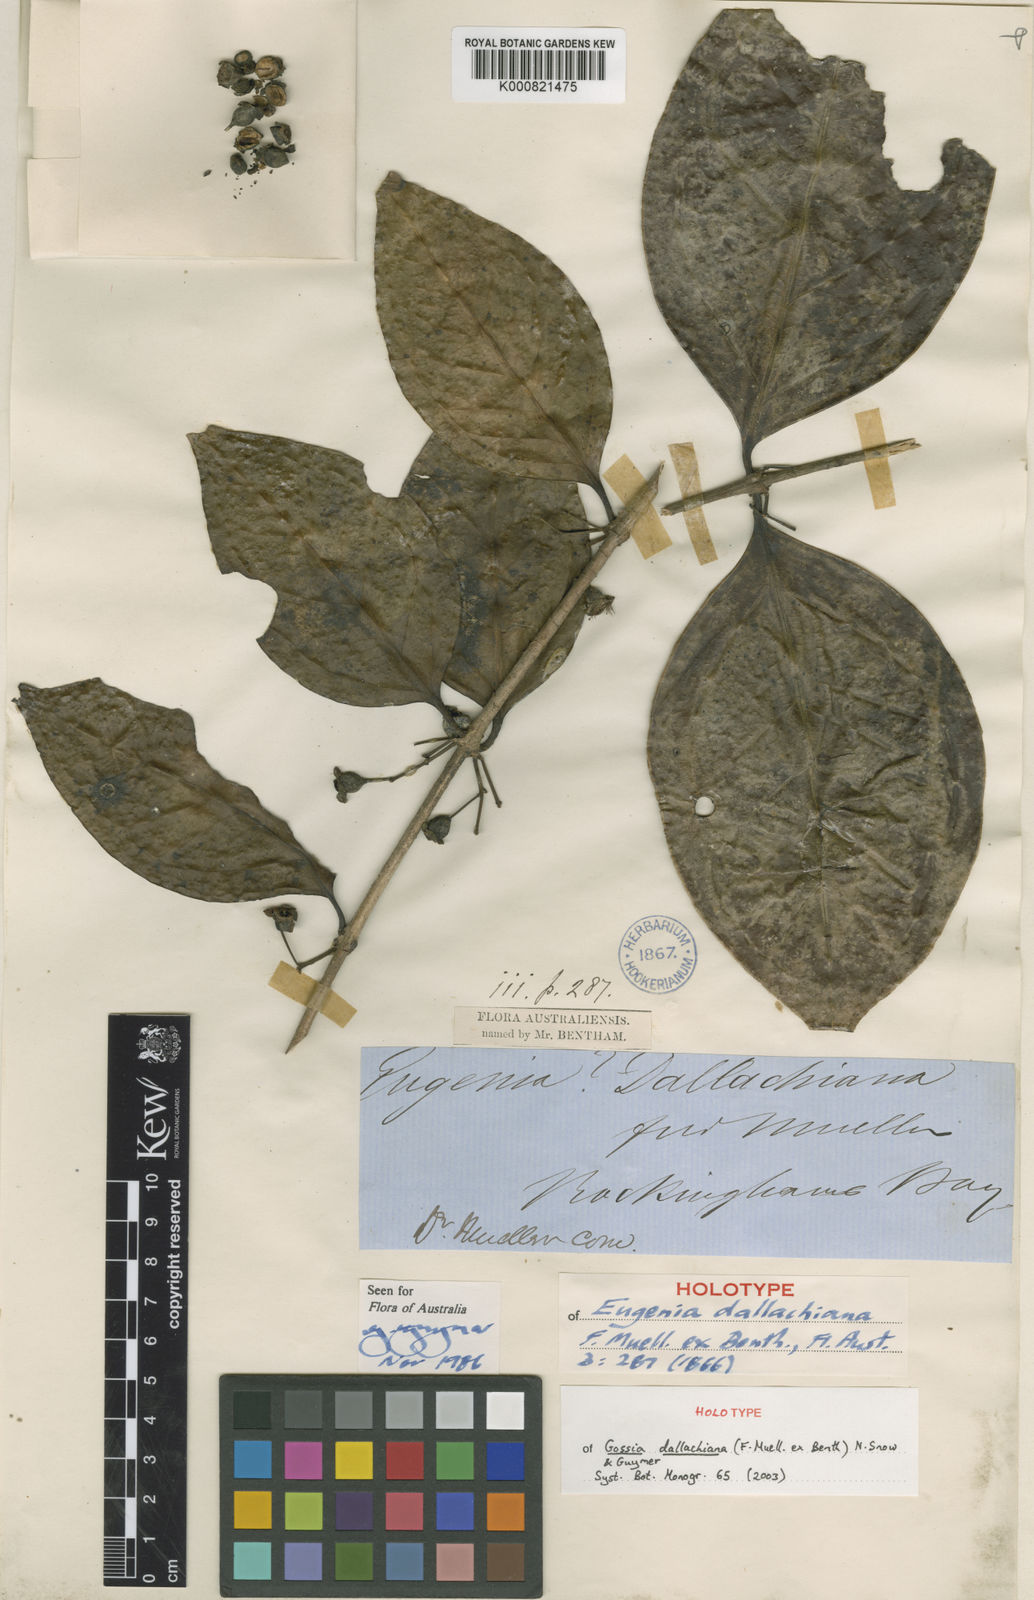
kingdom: Plantae
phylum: Tracheophyta
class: Magnoliopsida
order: Myrtales
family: Myrtaceae
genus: Gossia
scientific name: Gossia
